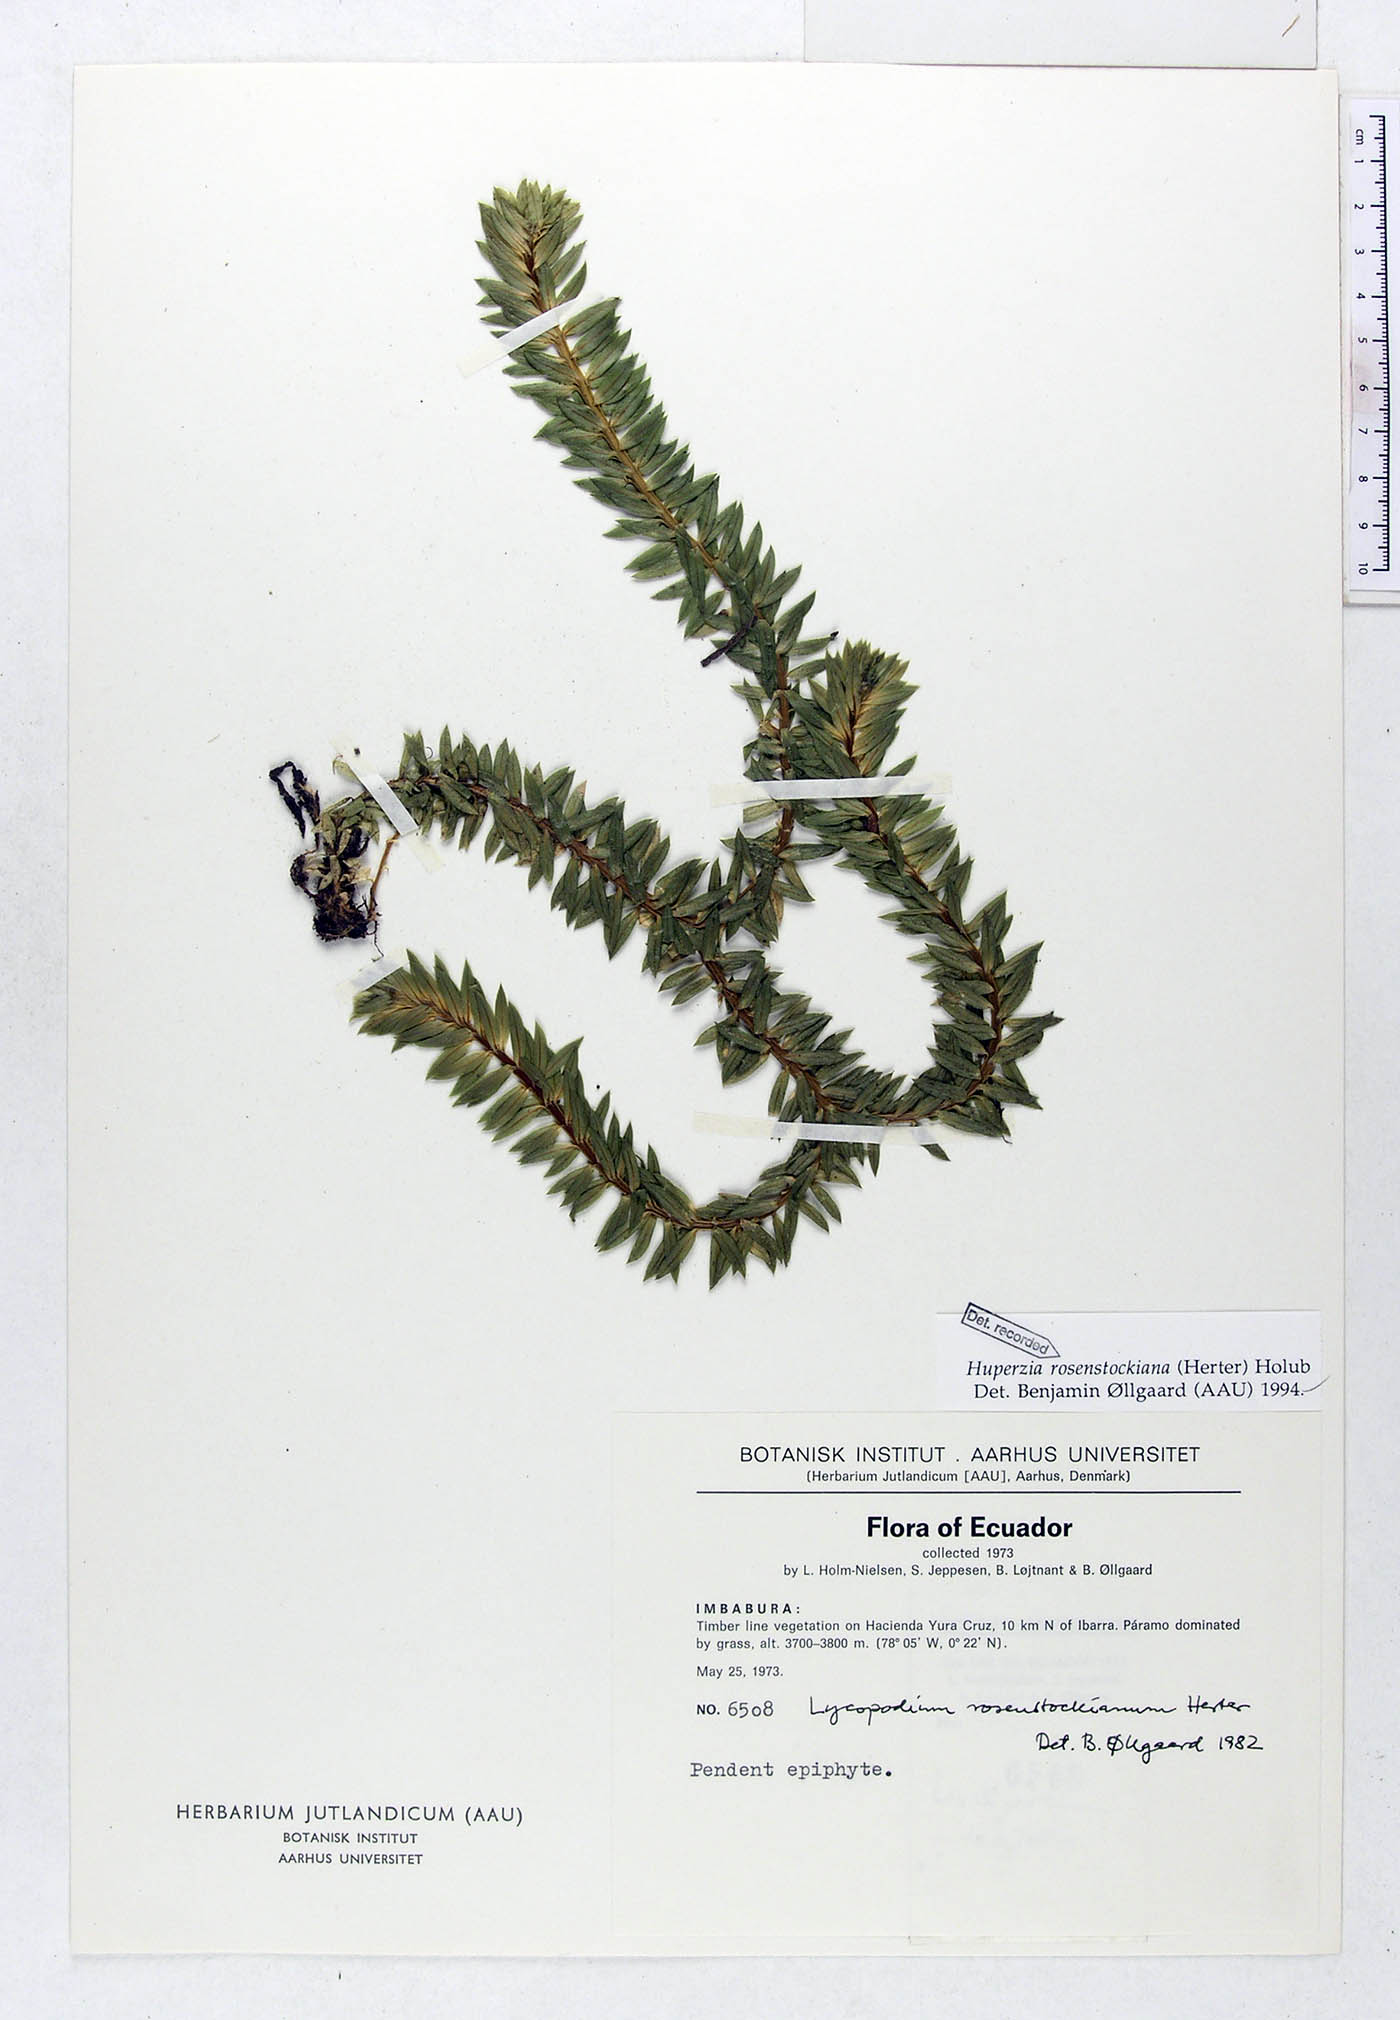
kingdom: Plantae
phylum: Tracheophyta
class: Lycopodiopsida
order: Lycopodiales
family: Lycopodiaceae
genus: Phlegmariurus
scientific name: Phlegmariurus rosenstockianus
